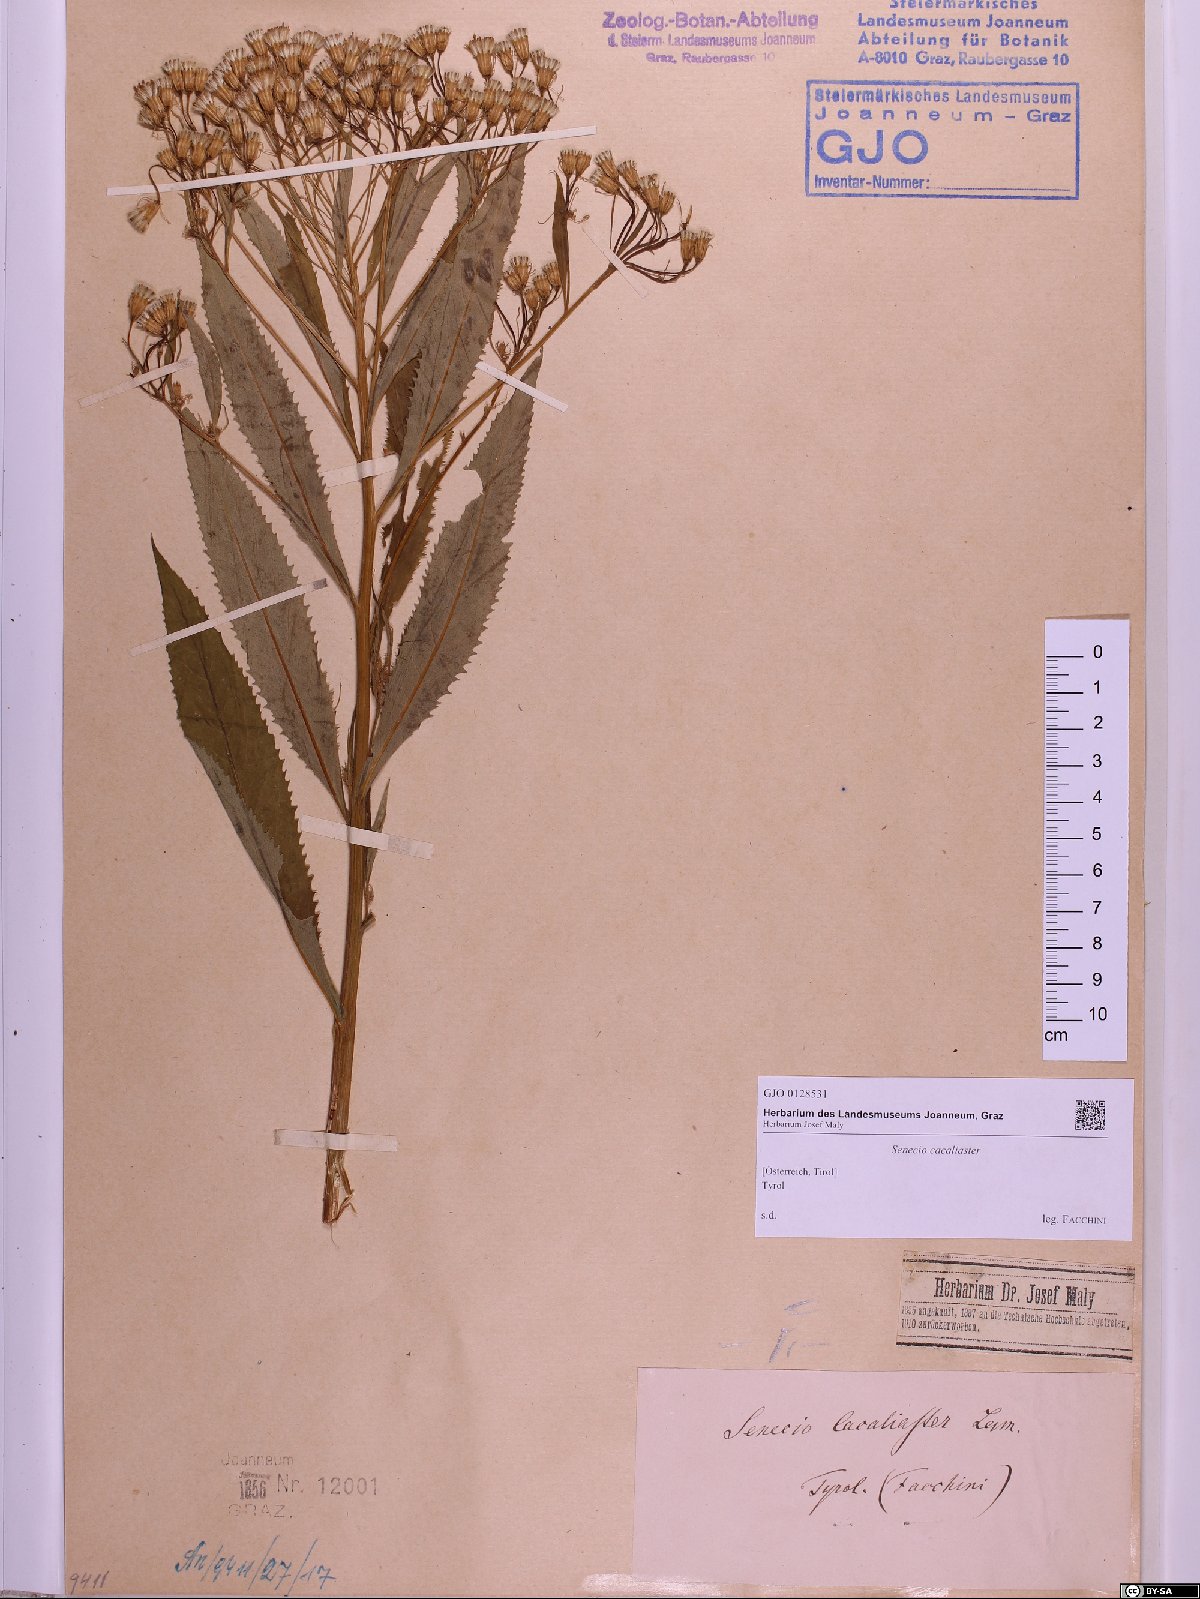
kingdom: Plantae
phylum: Tracheophyta
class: Magnoliopsida
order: Asterales
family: Asteraceae
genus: Senecio
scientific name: Senecio cacaliaster
